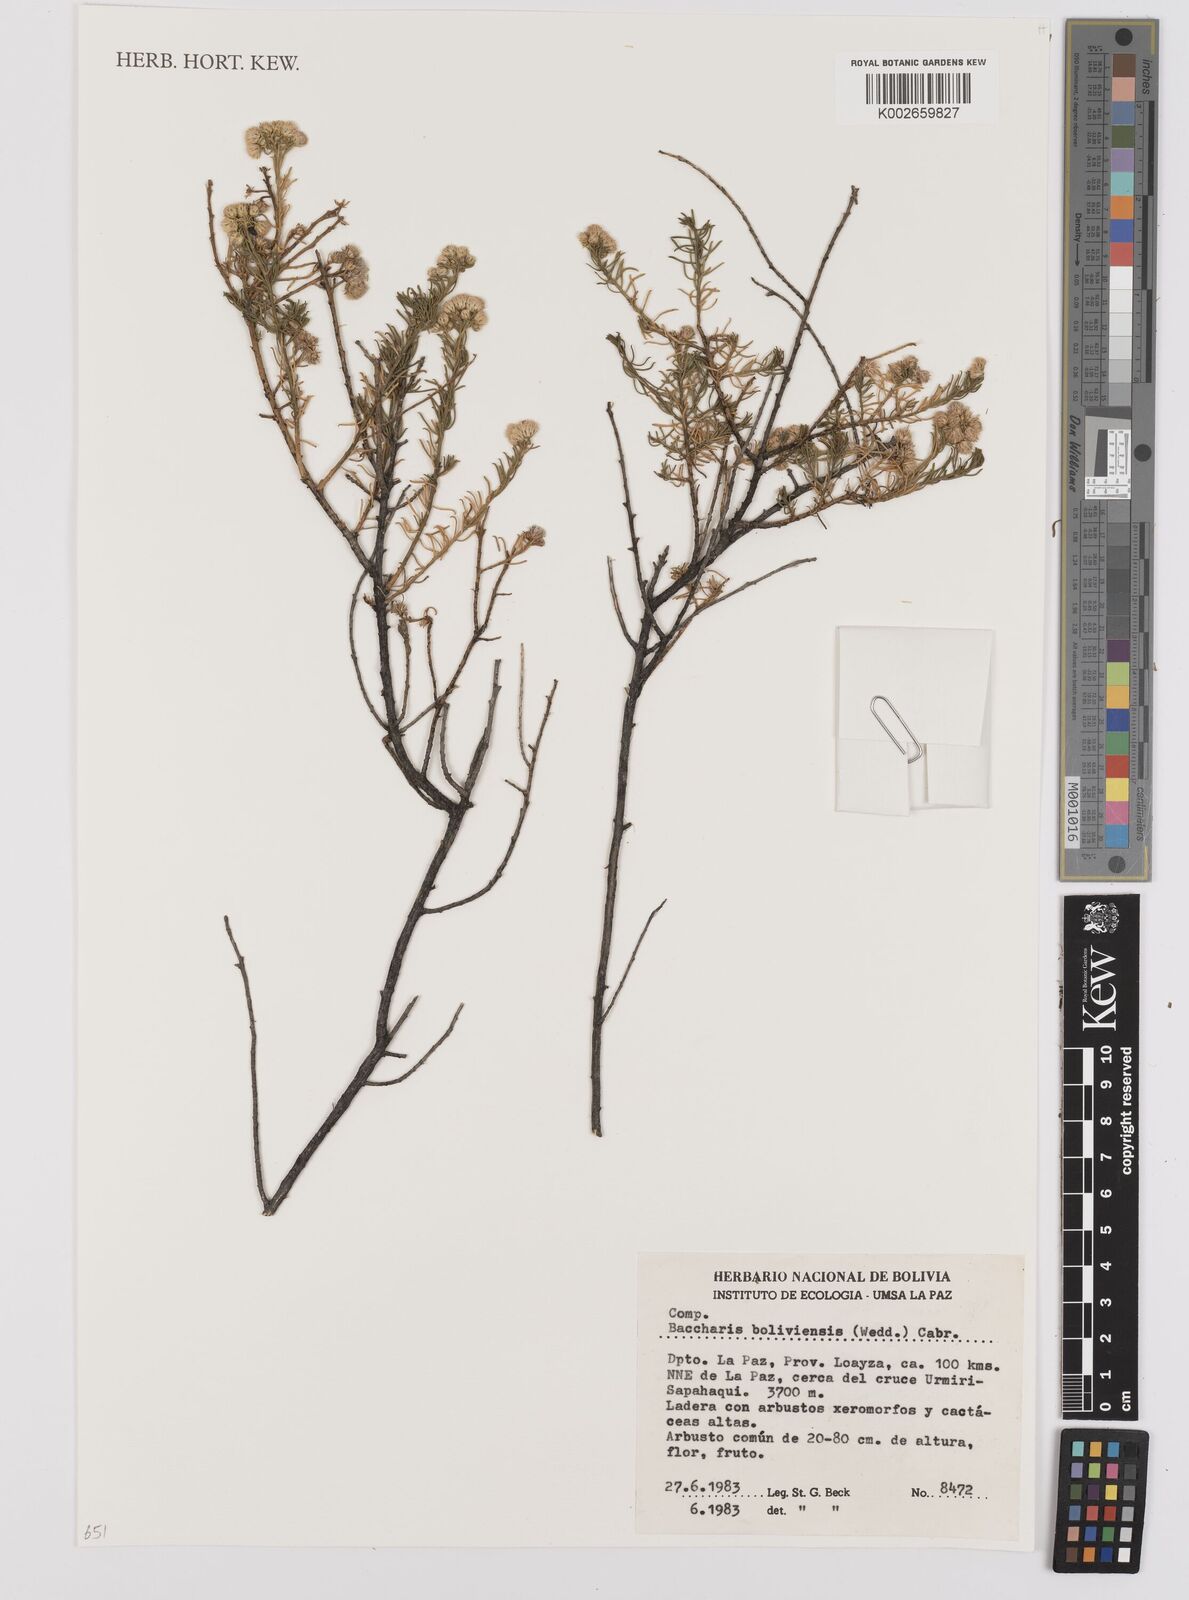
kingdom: Plantae
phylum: Tracheophyta
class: Magnoliopsida
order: Asterales
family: Asteraceae
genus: Baccharis
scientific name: Baccharis bolivensis
